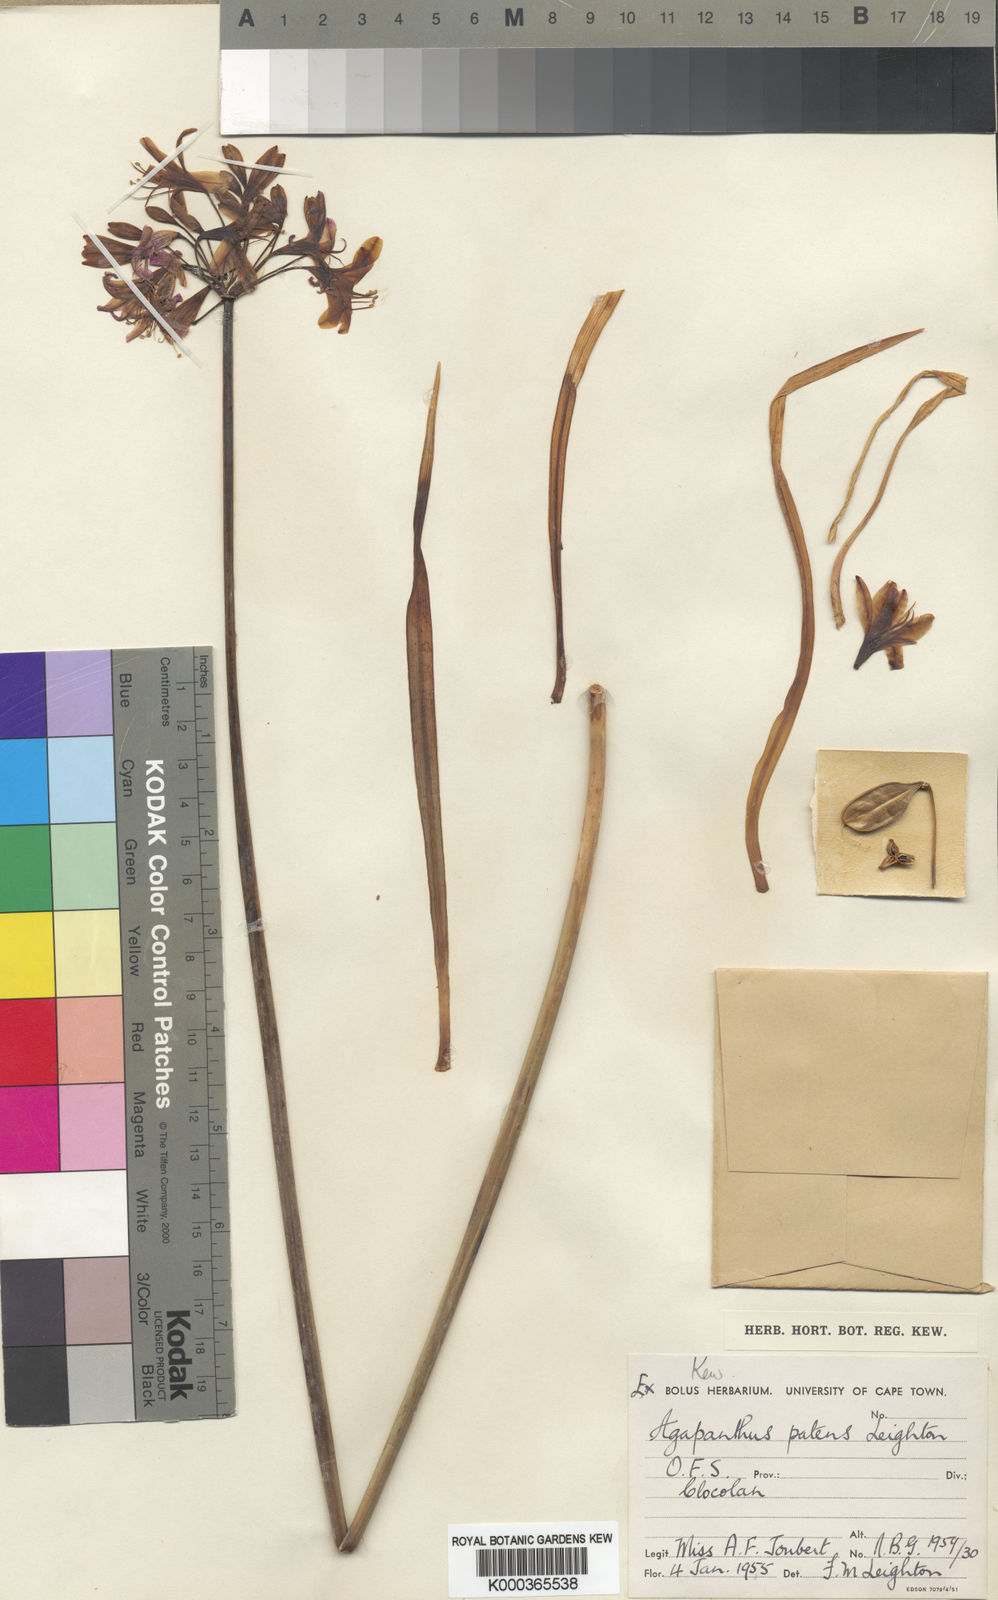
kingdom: Plantae
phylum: Tracheophyta
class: Liliopsida
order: Asparagales
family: Amaryllidaceae
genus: Agapanthus
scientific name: Agapanthus campanulatus
